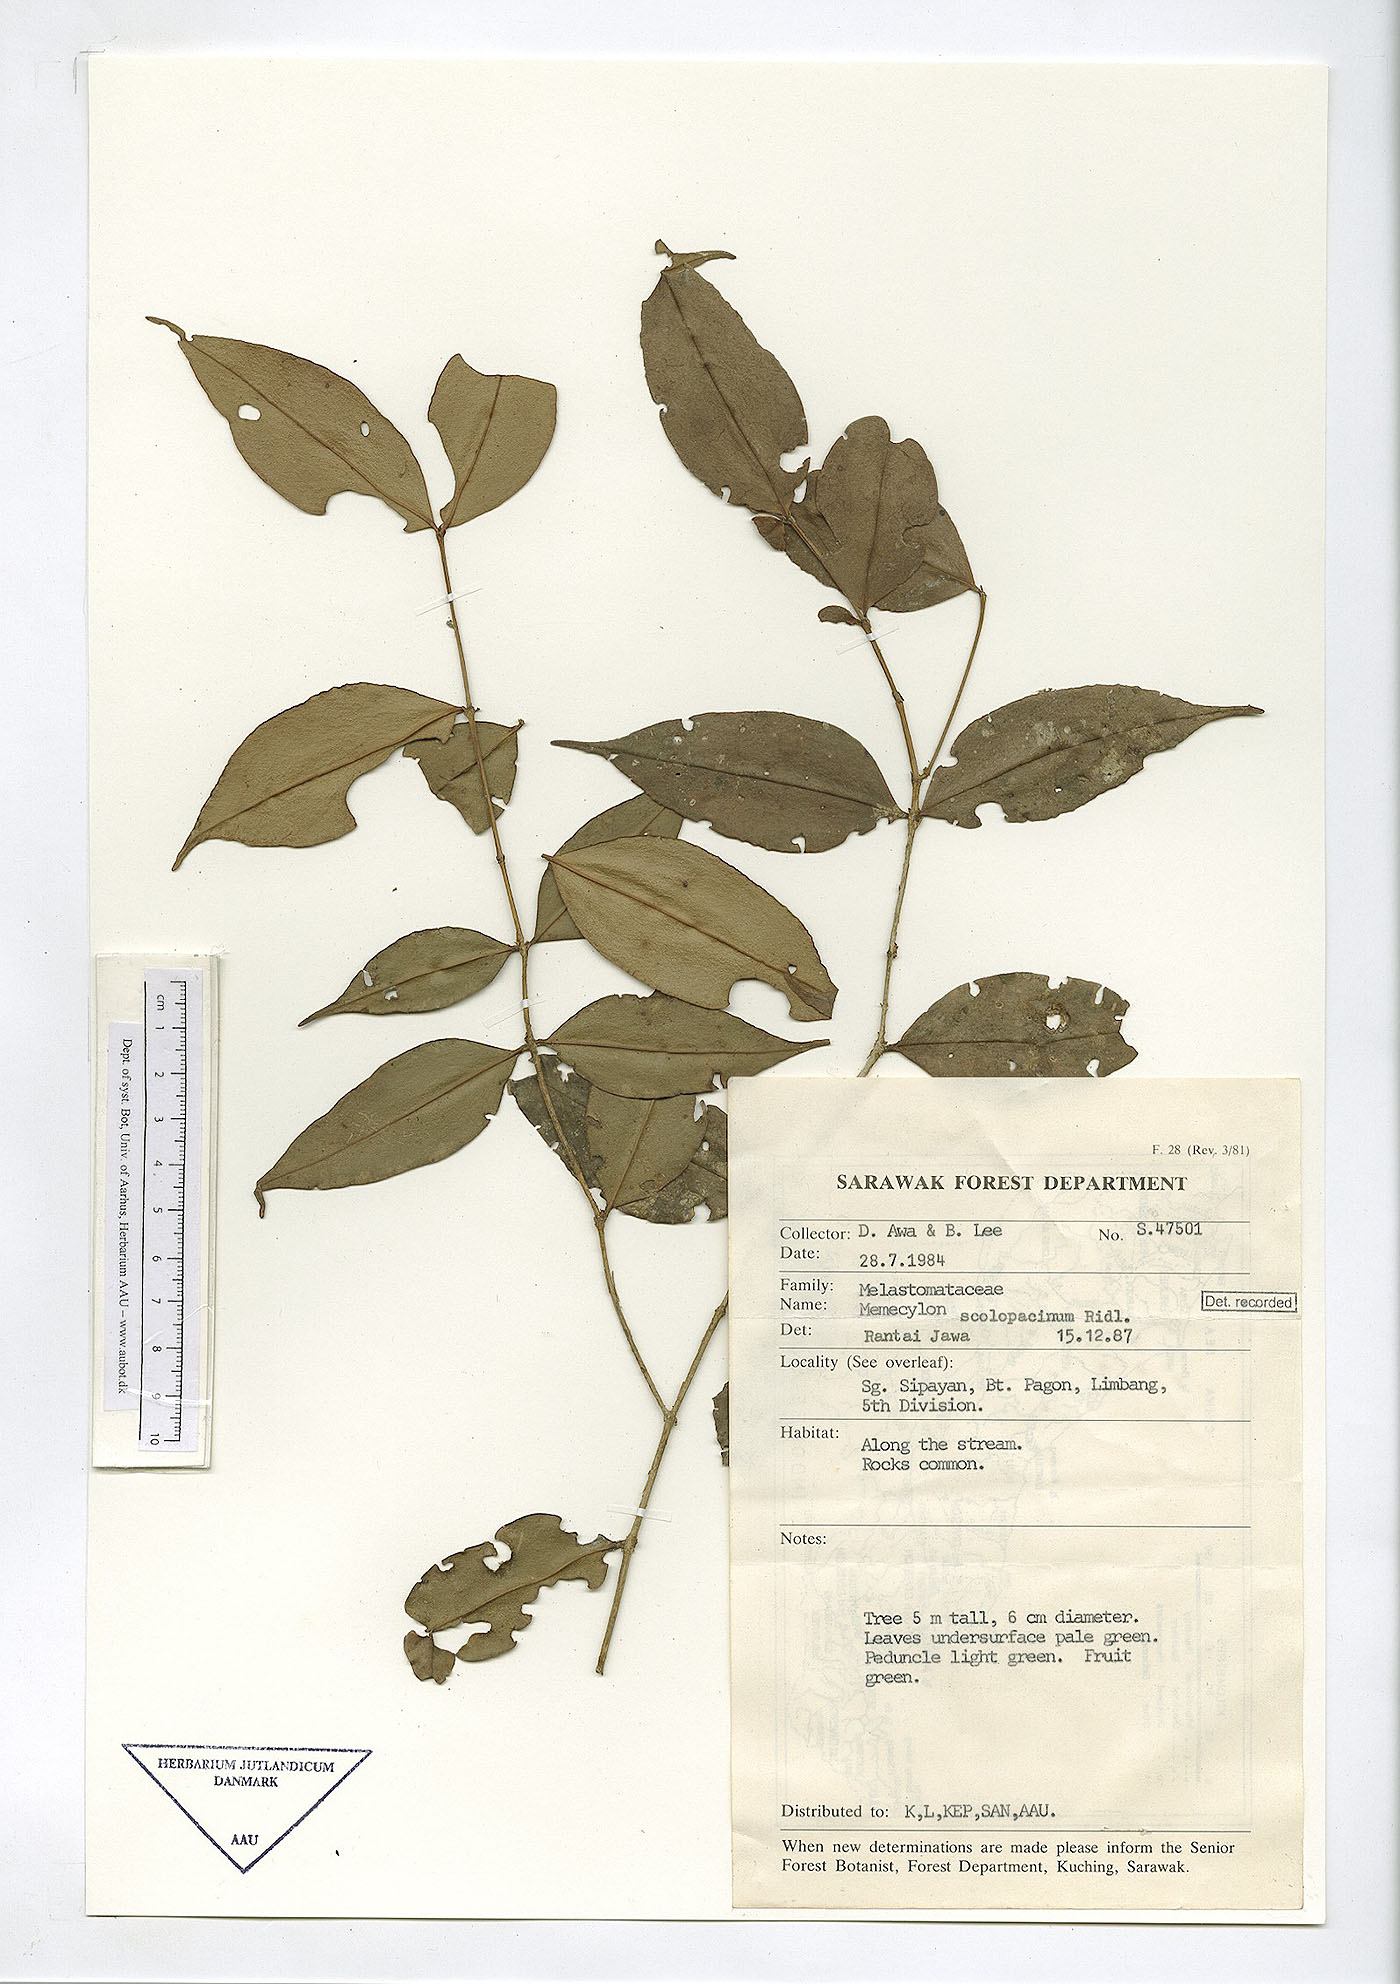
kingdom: Plantae
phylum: Tracheophyta
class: Magnoliopsida
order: Myrtales
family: Melastomataceae
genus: Memecylon
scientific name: Memecylon scolopacinum
